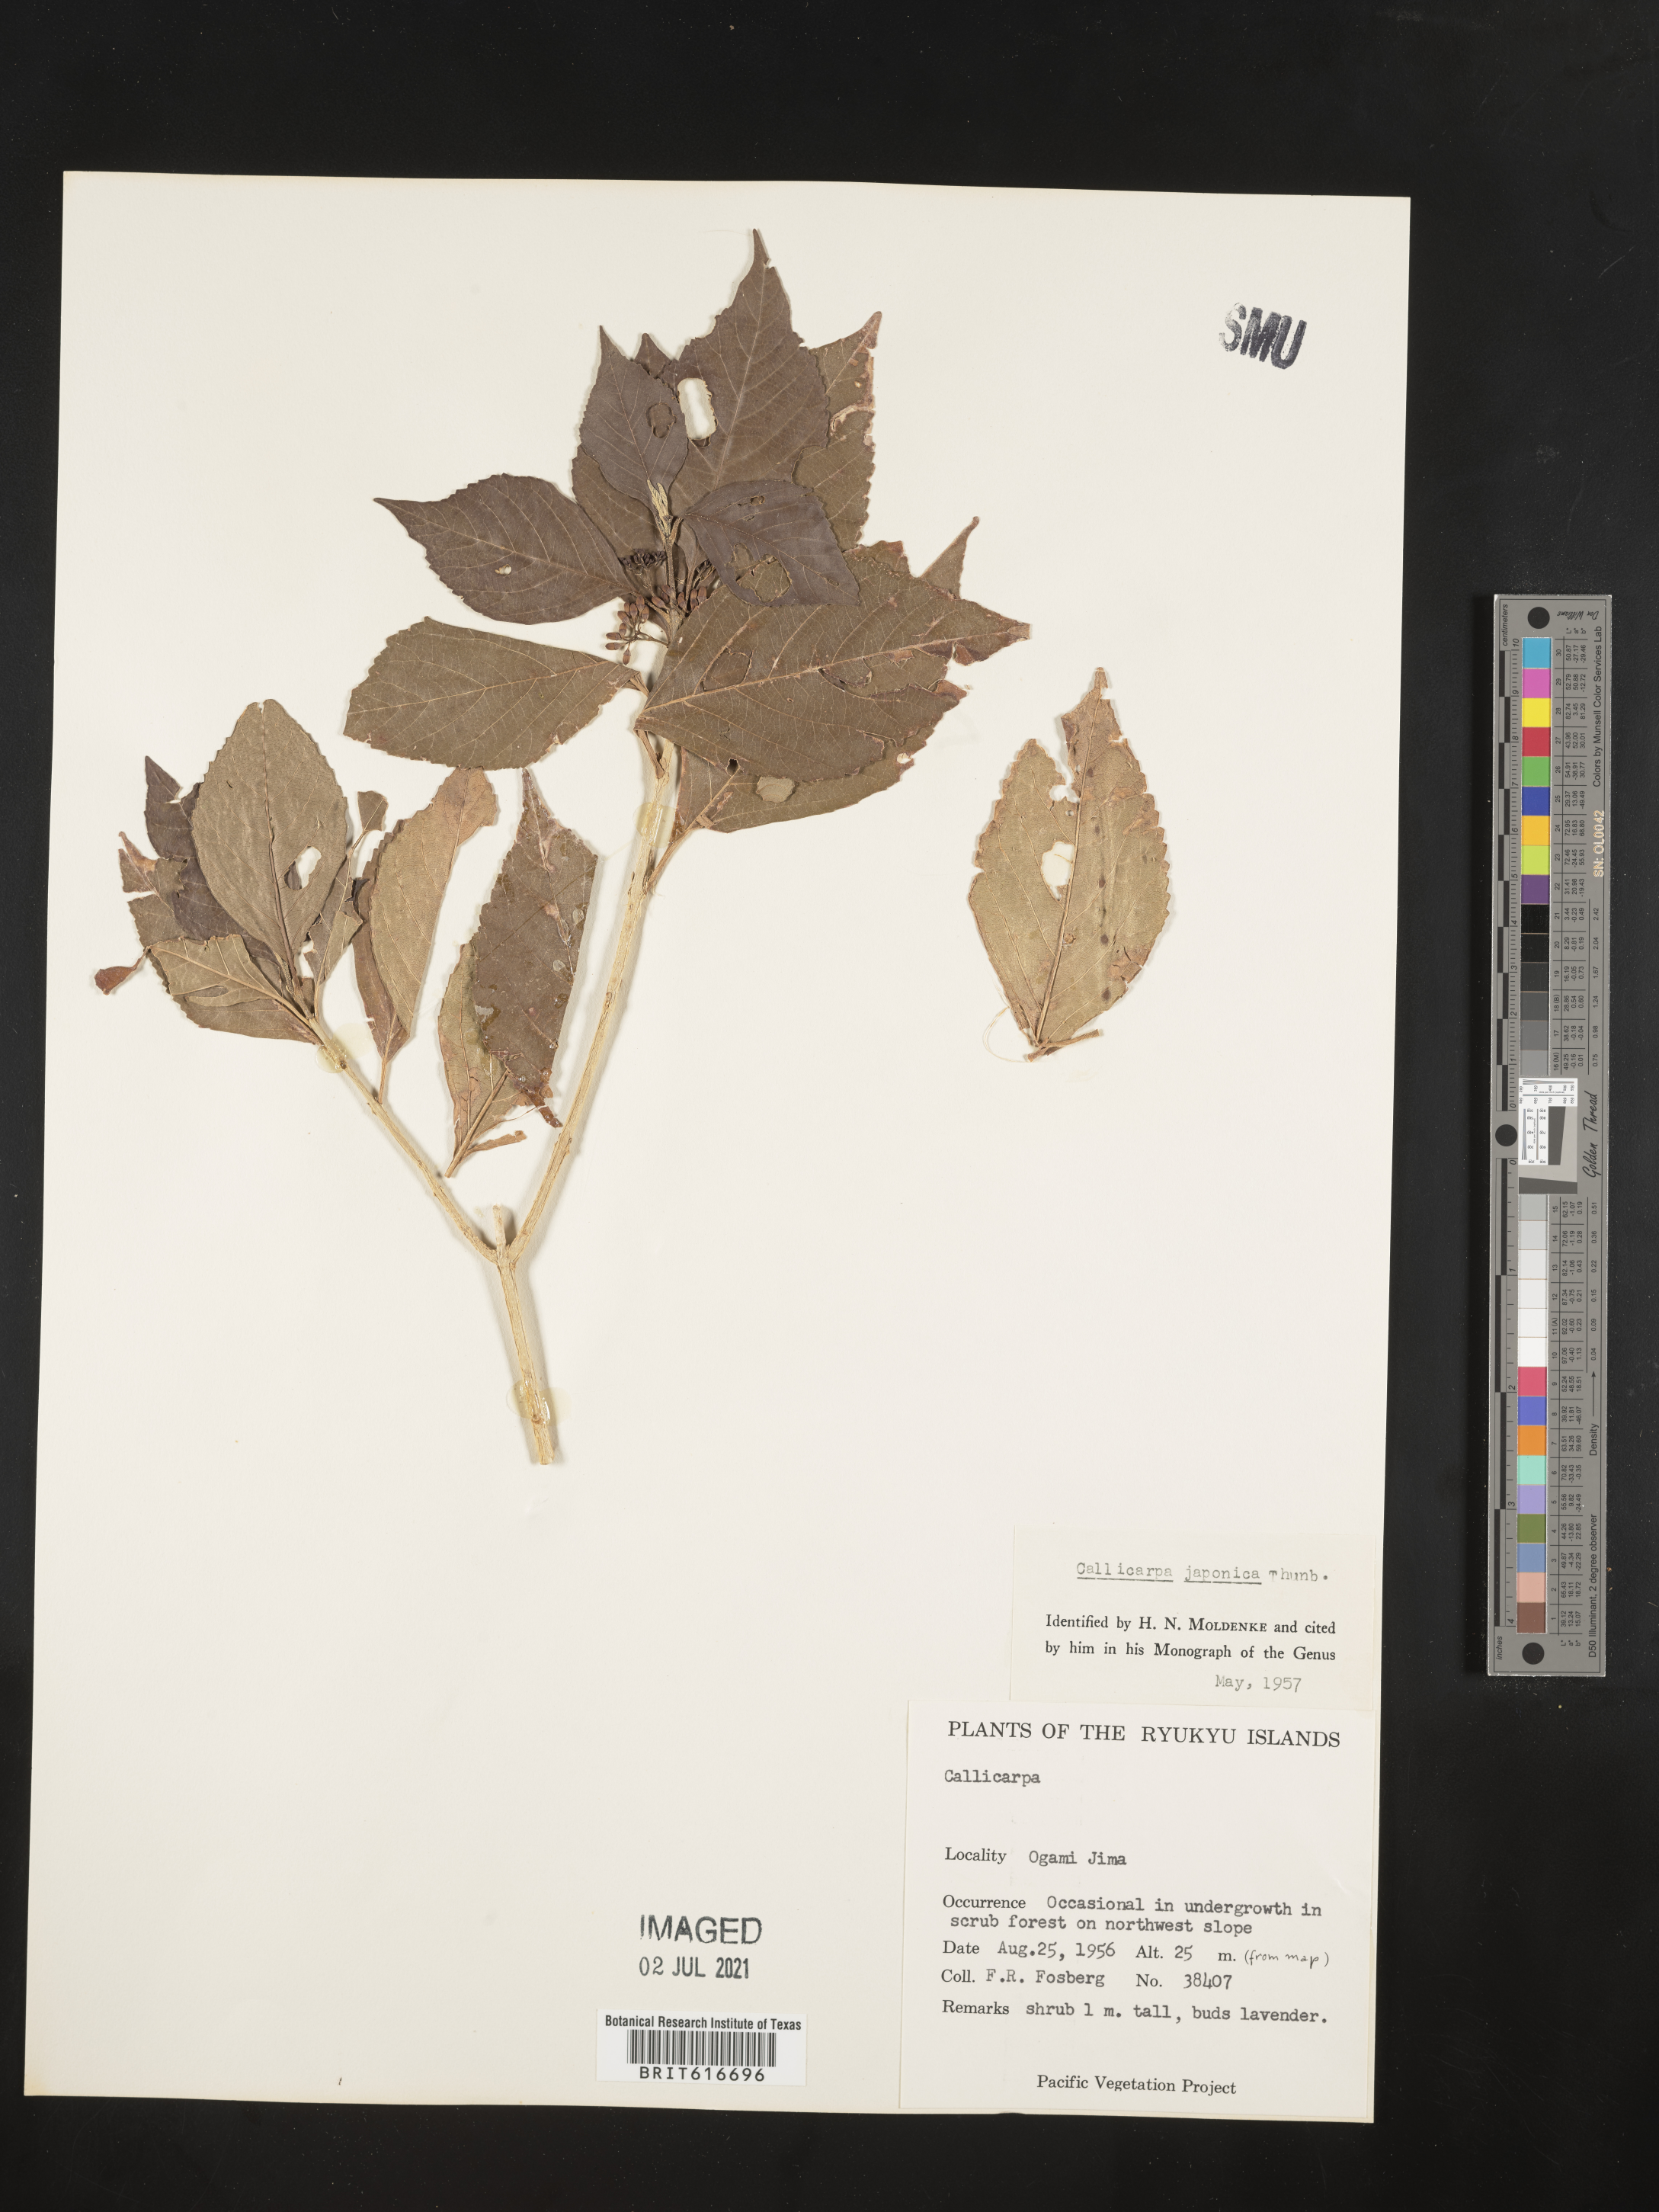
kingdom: Plantae
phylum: Tracheophyta
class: Magnoliopsida
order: Lamiales
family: Lamiaceae
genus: Callicarpa
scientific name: Callicarpa japonica
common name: Japanese beauty-berry
